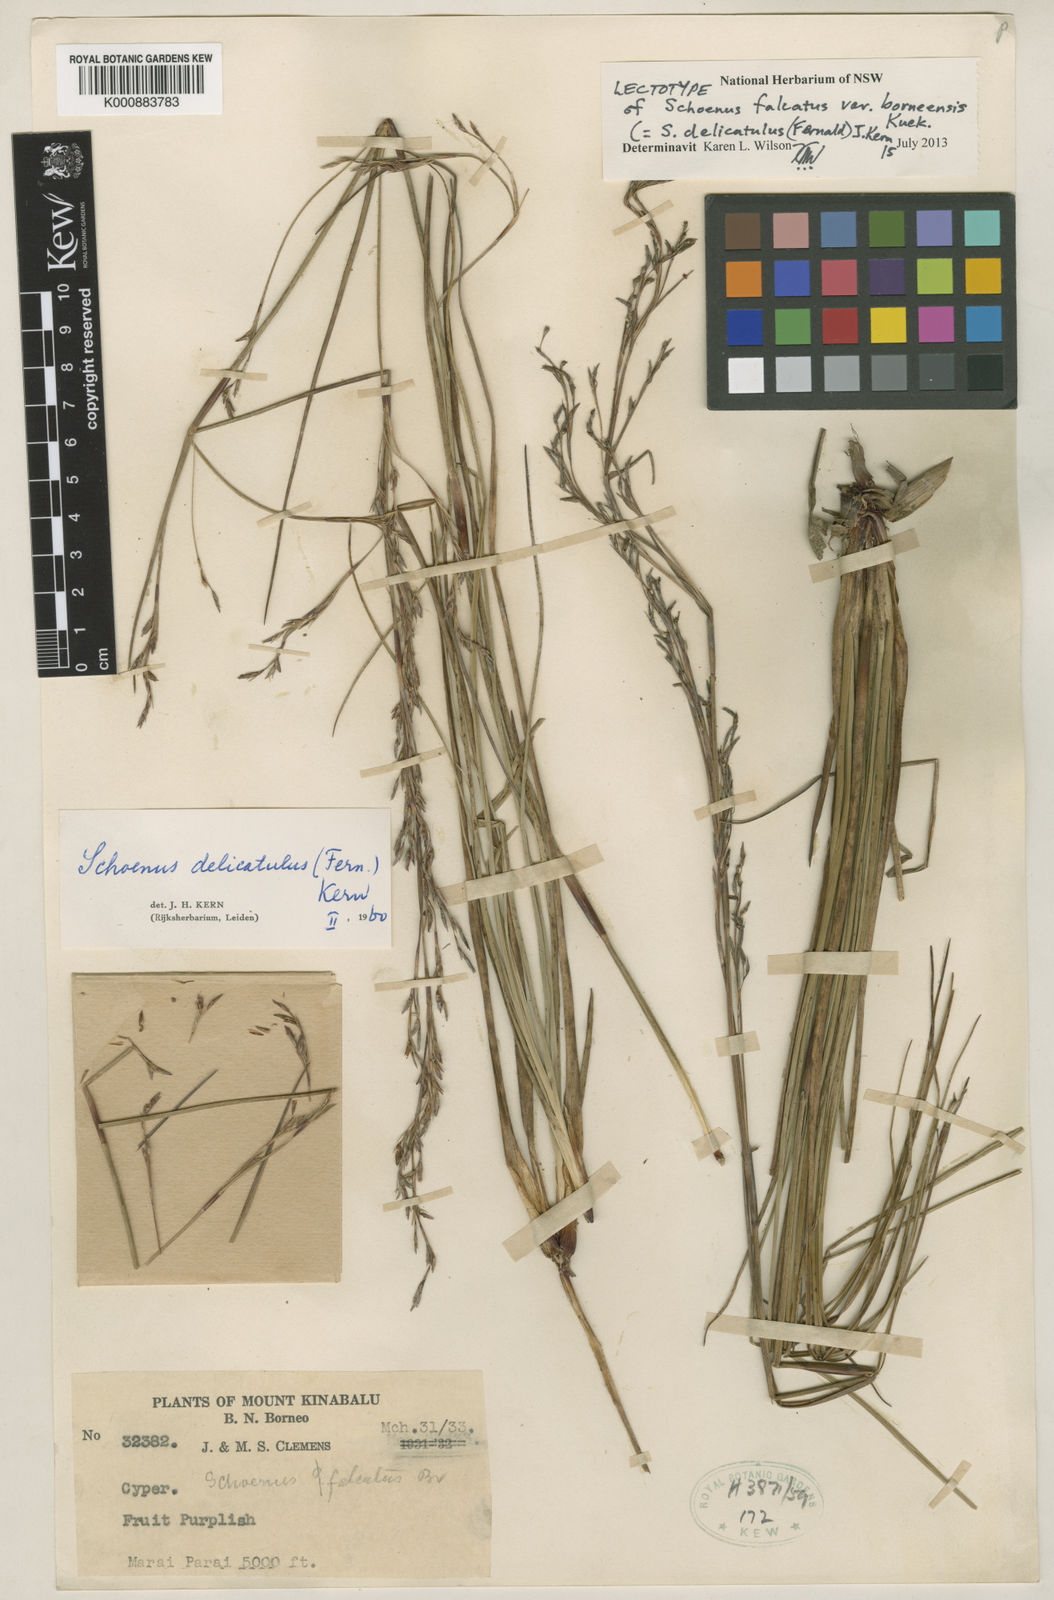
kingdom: Plantae
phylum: Tracheophyta
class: Liliopsida
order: Poales
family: Cyperaceae
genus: Schoenus
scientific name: Schoenus delicatulus
